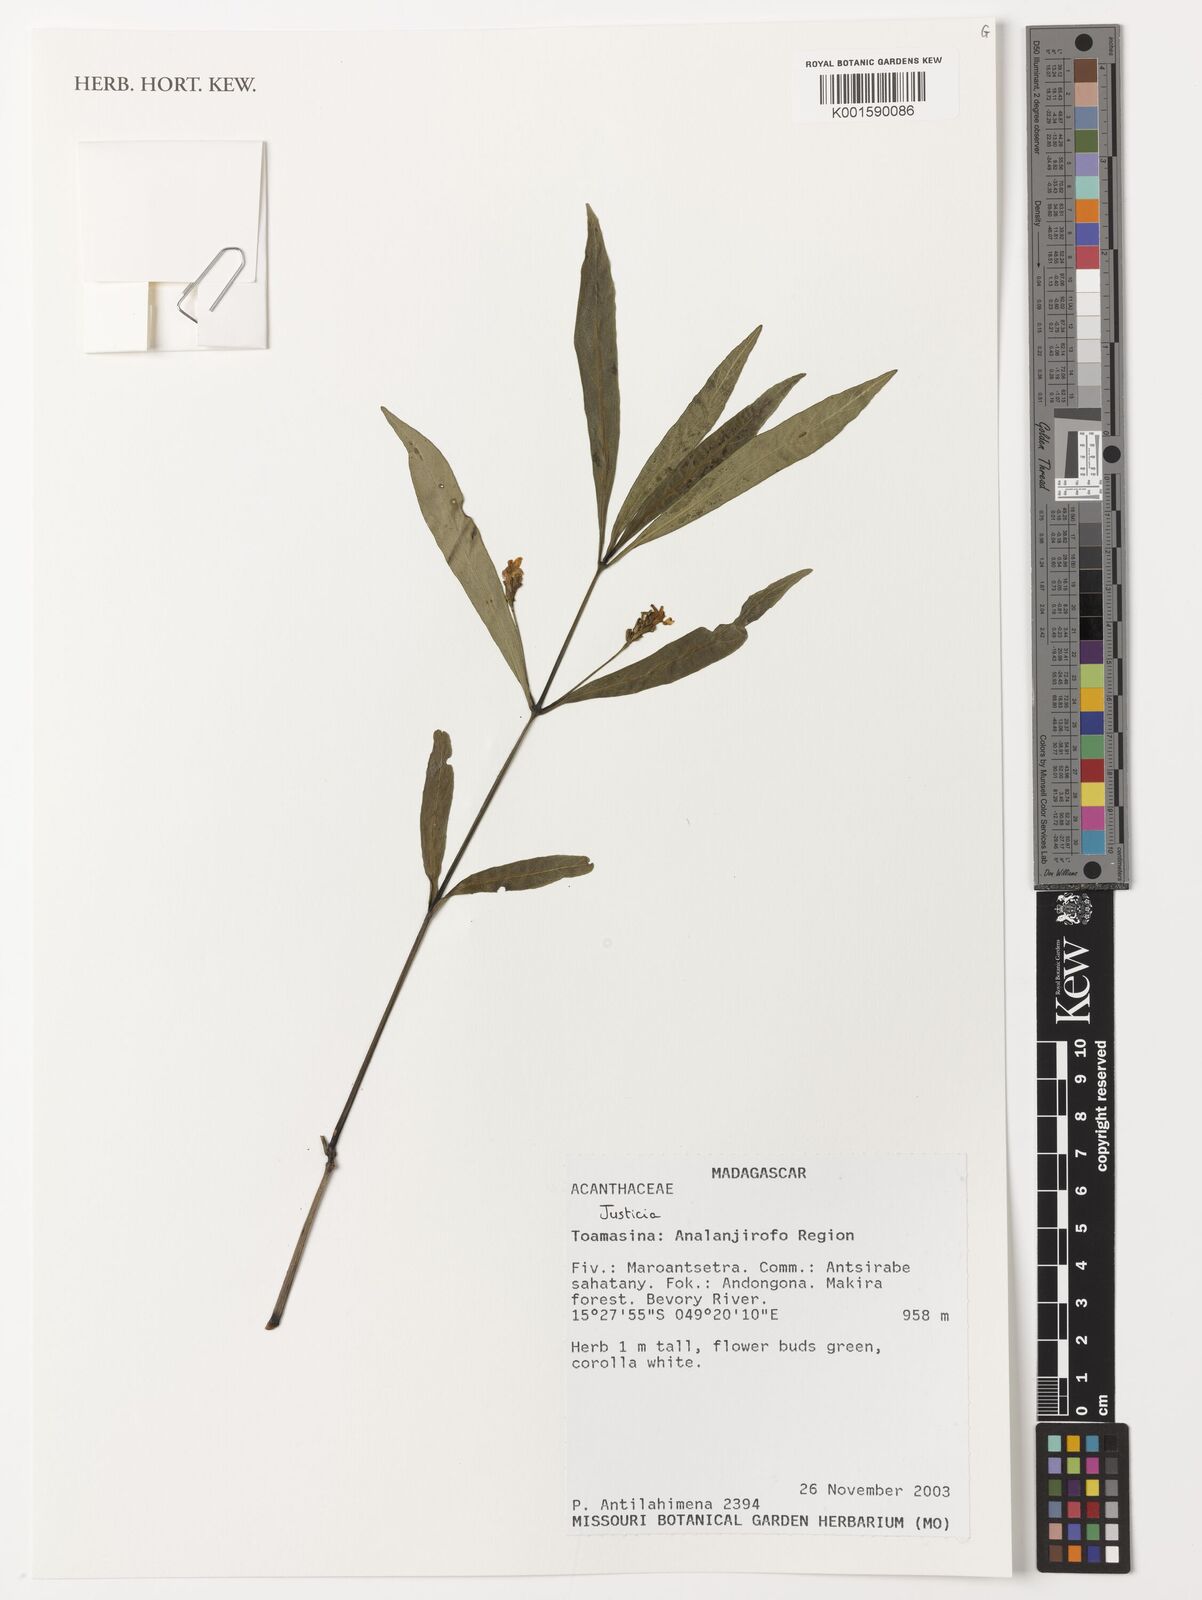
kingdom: Plantae
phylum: Tracheophyta
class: Magnoliopsida
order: Lamiales
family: Acanthaceae
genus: Justicia
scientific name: Justicia
